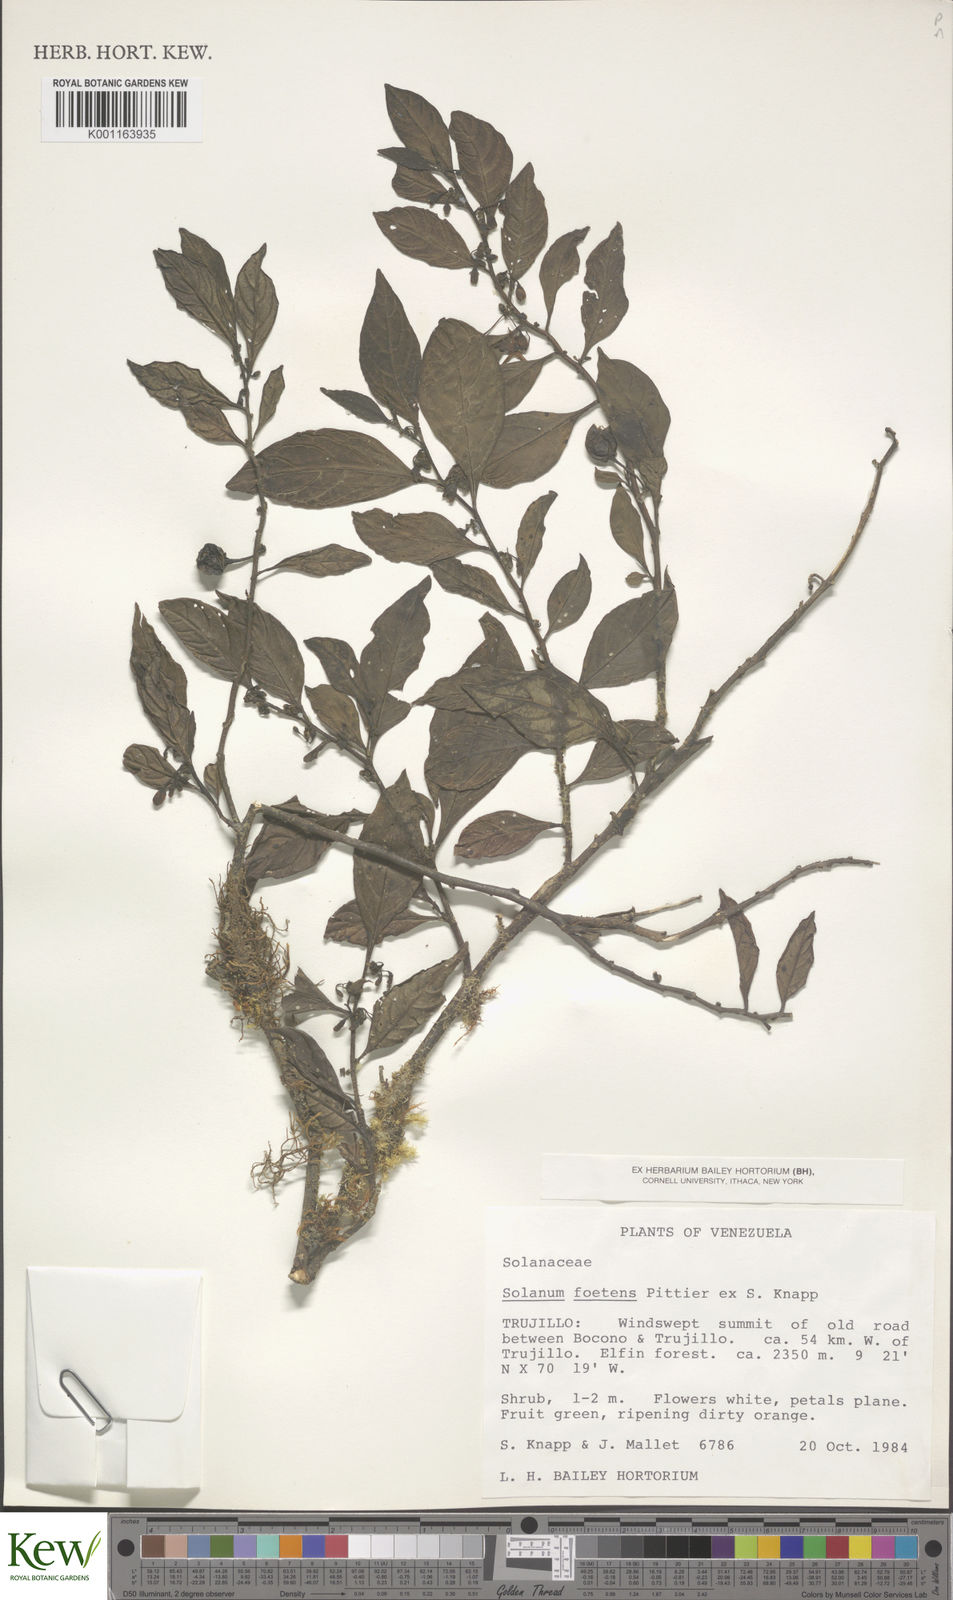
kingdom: Plantae
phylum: Tracheophyta
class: Magnoliopsida
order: Solanales
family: Solanaceae
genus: Solanum
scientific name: Solanum foetens
